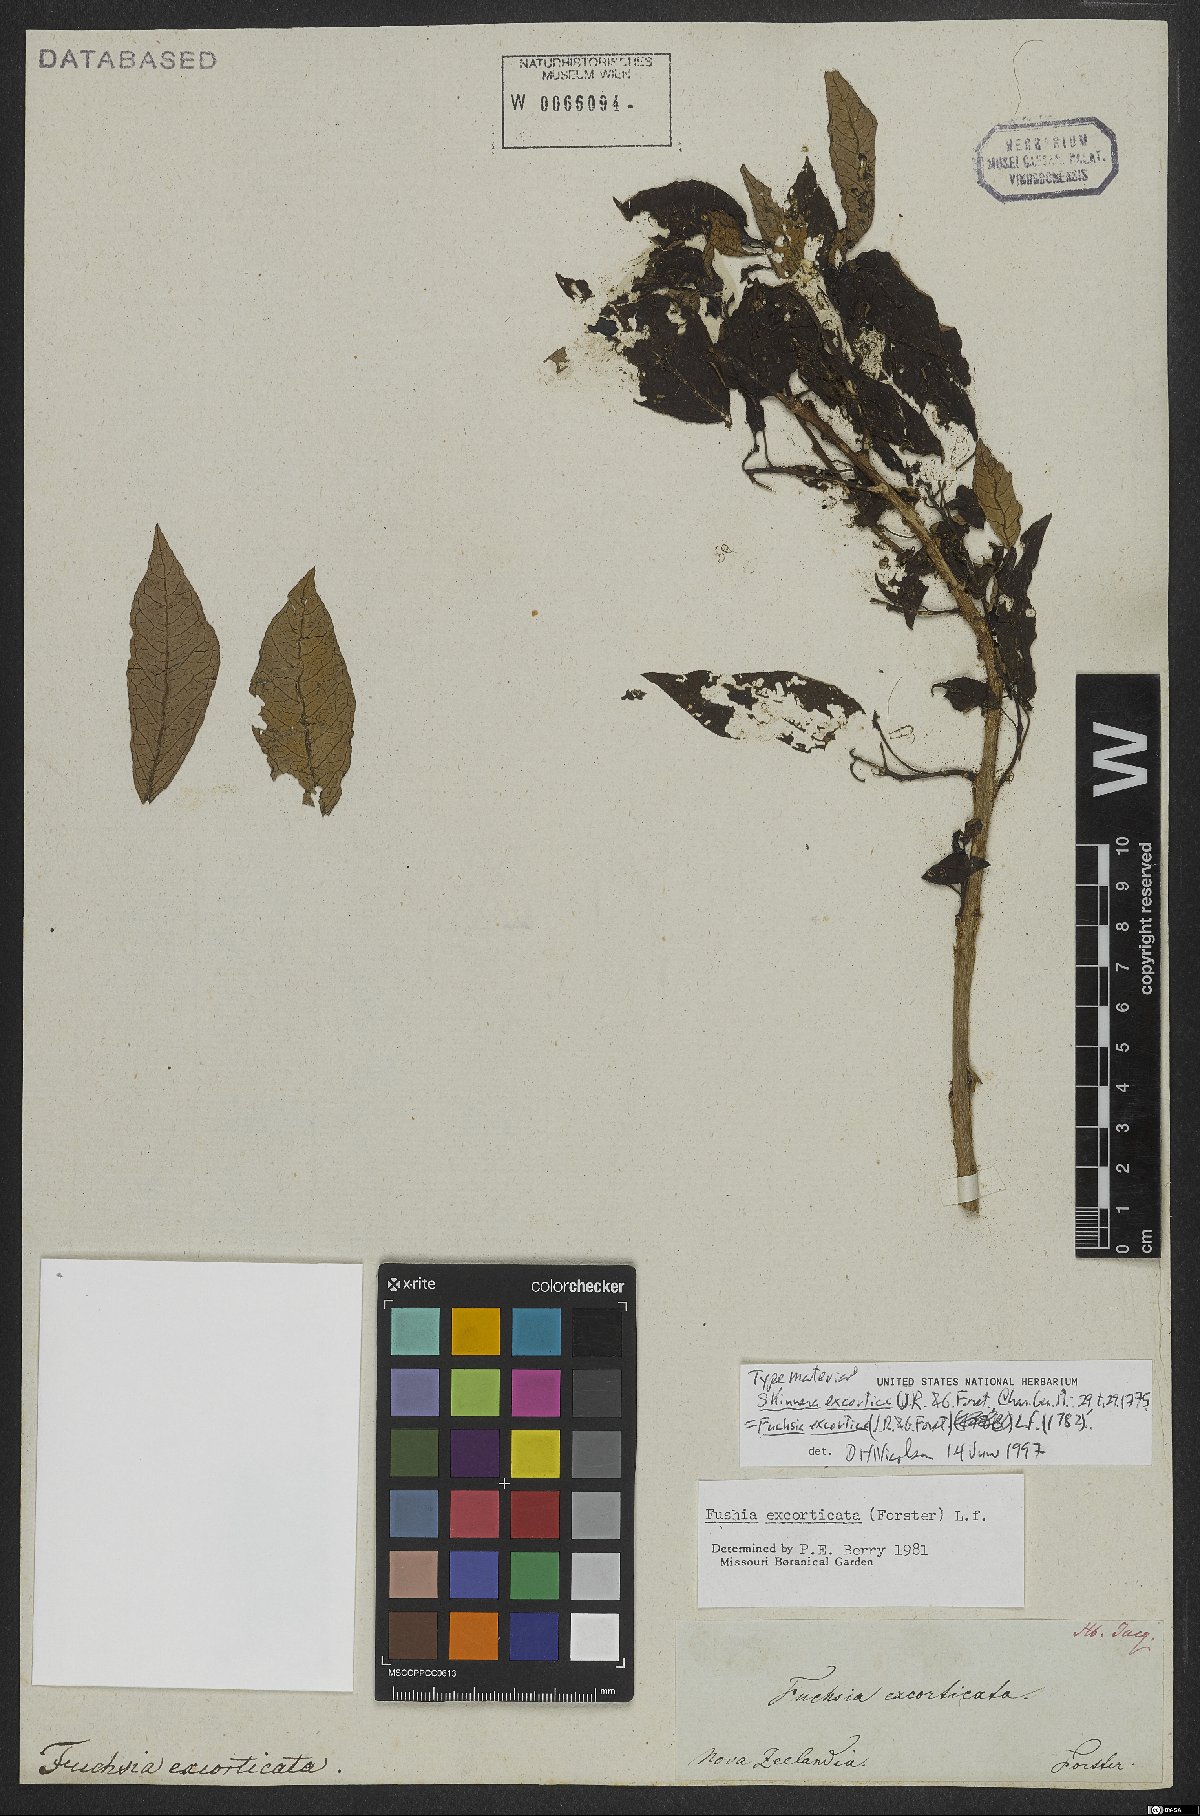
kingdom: Plantae
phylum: Tracheophyta
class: Magnoliopsida
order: Myrtales
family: Onagraceae
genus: Fuchsia
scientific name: Fuchsia excorticata
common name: Tree fuchsia
